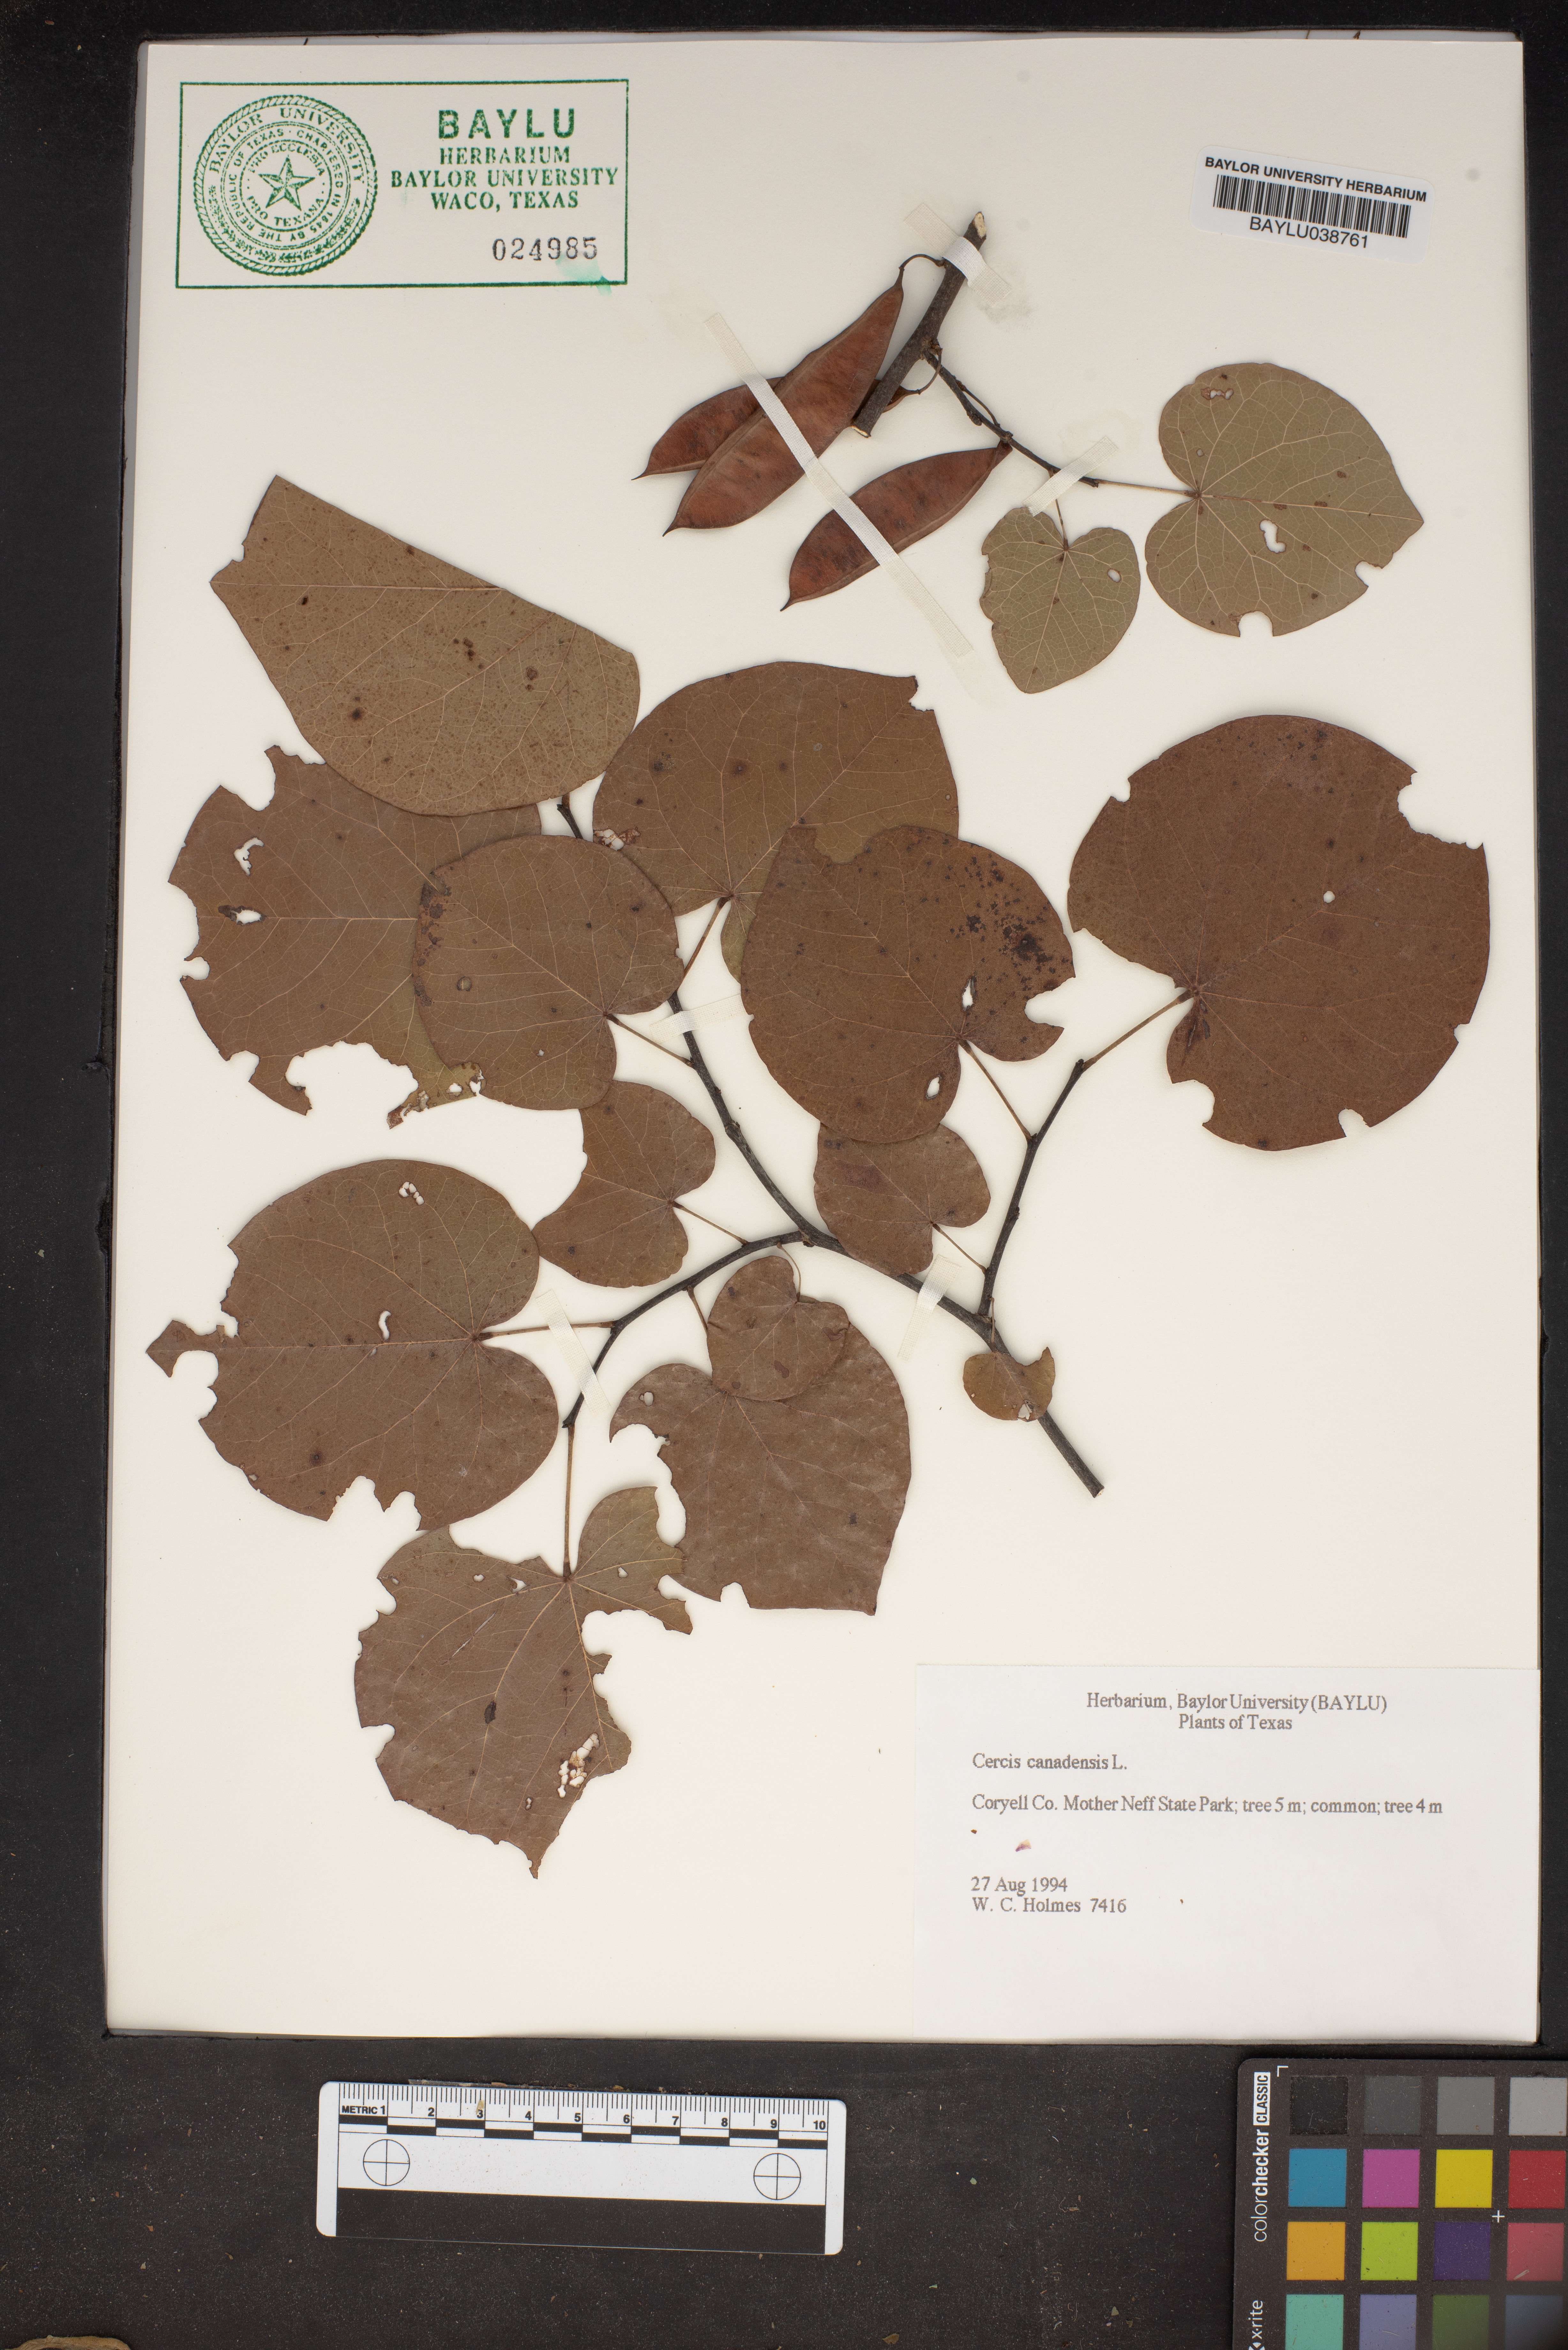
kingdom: Plantae
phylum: Tracheophyta
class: Magnoliopsida
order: Fabales
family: Fabaceae
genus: Cercis
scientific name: Cercis canadensis
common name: Eastern redbud
